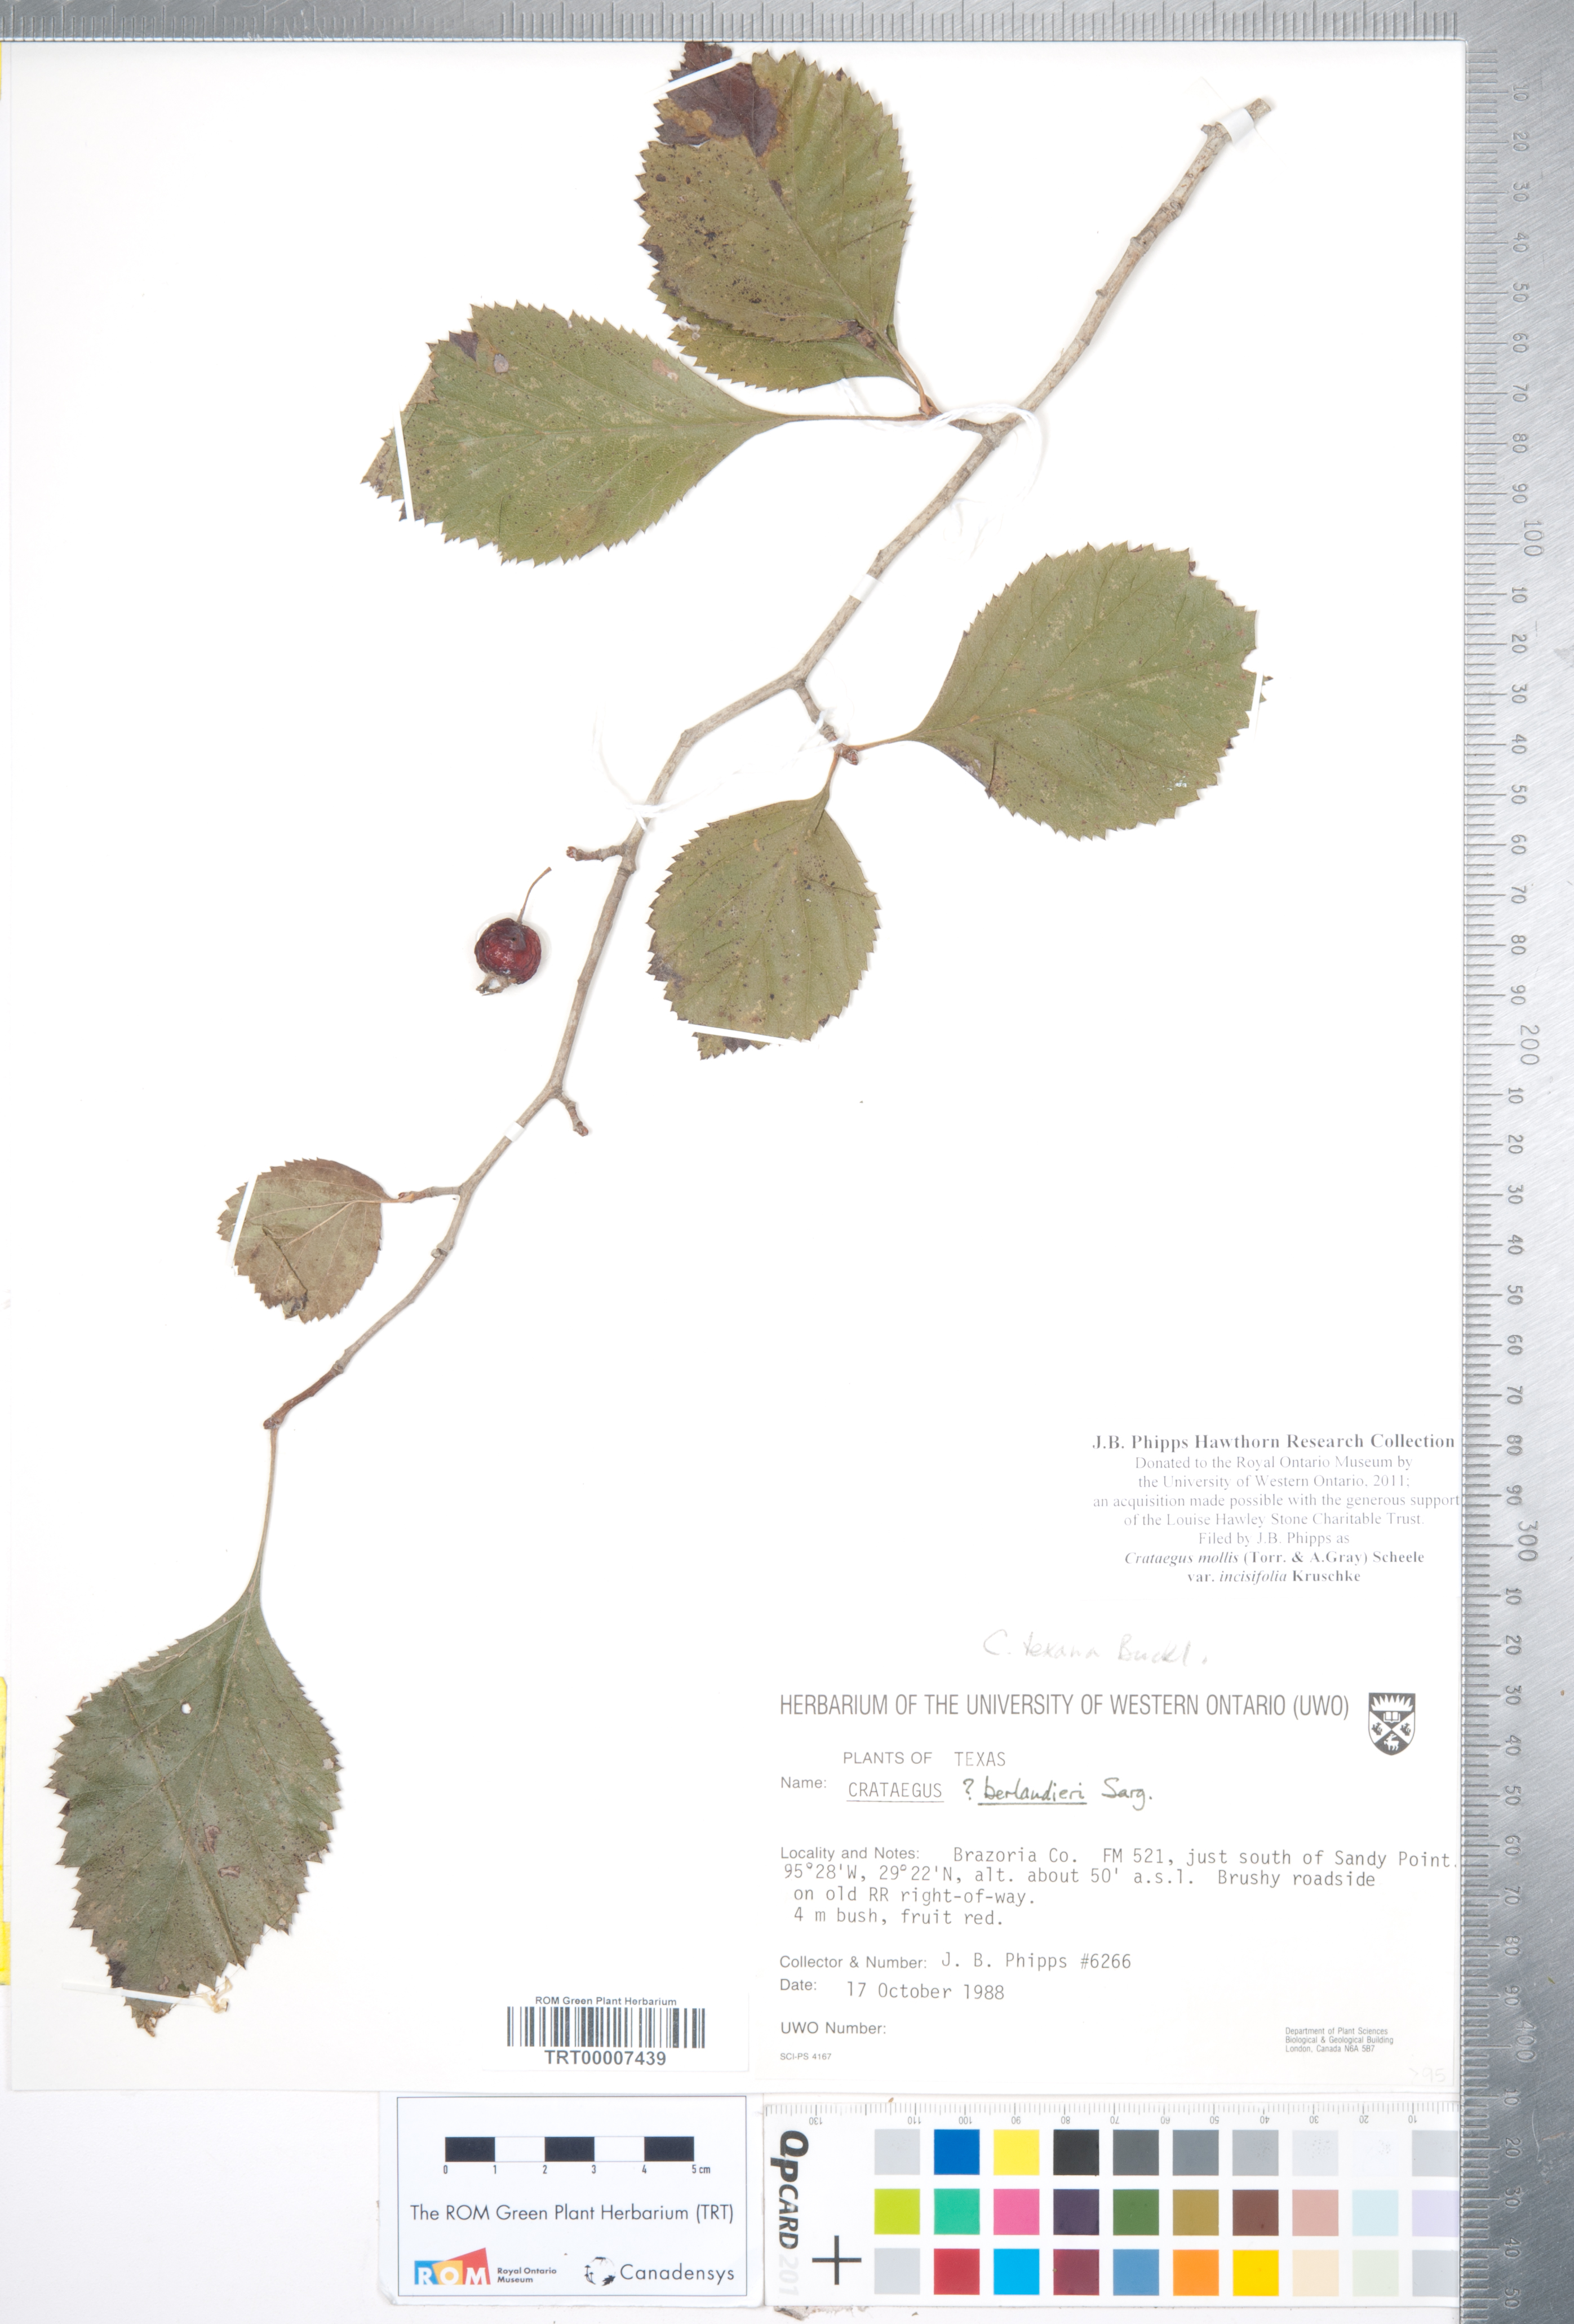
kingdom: Plantae
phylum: Tracheophyta
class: Magnoliopsida
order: Rosales
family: Rosaceae
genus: Crataegus
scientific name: Crataegus mollis
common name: Downy hawthorn
